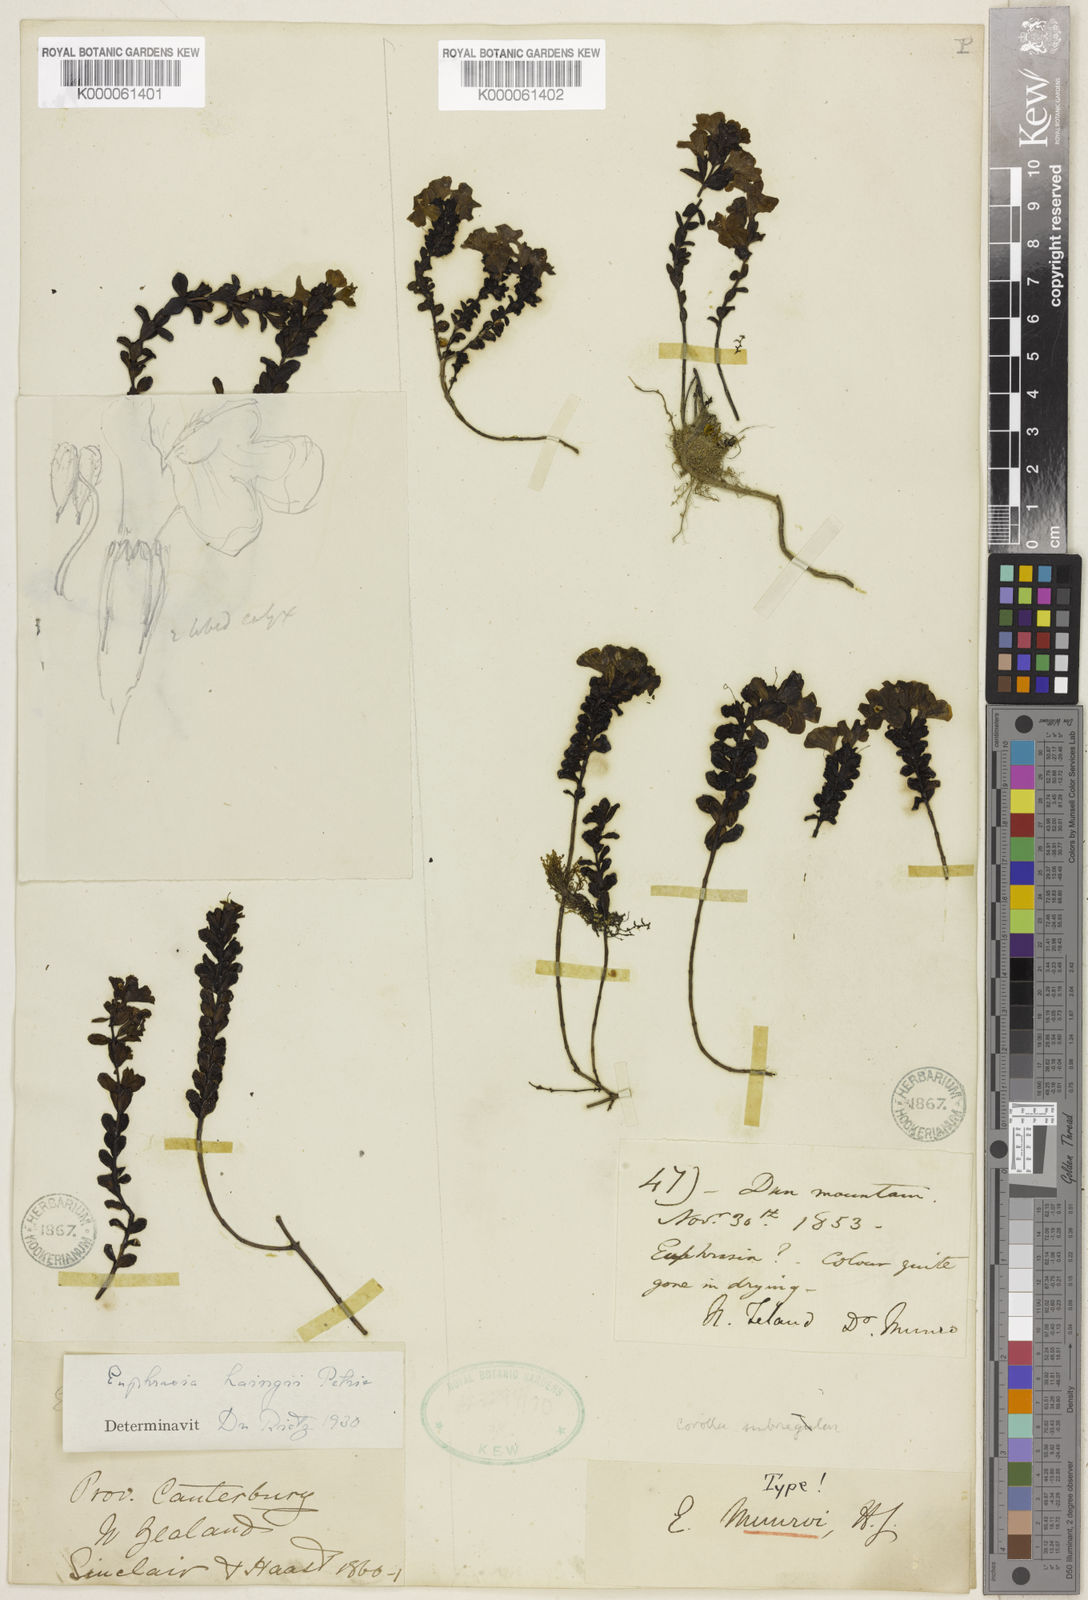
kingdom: Plantae
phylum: Tracheophyta
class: Magnoliopsida
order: Lamiales
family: Orobanchaceae
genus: Euphrasia
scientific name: Euphrasia
